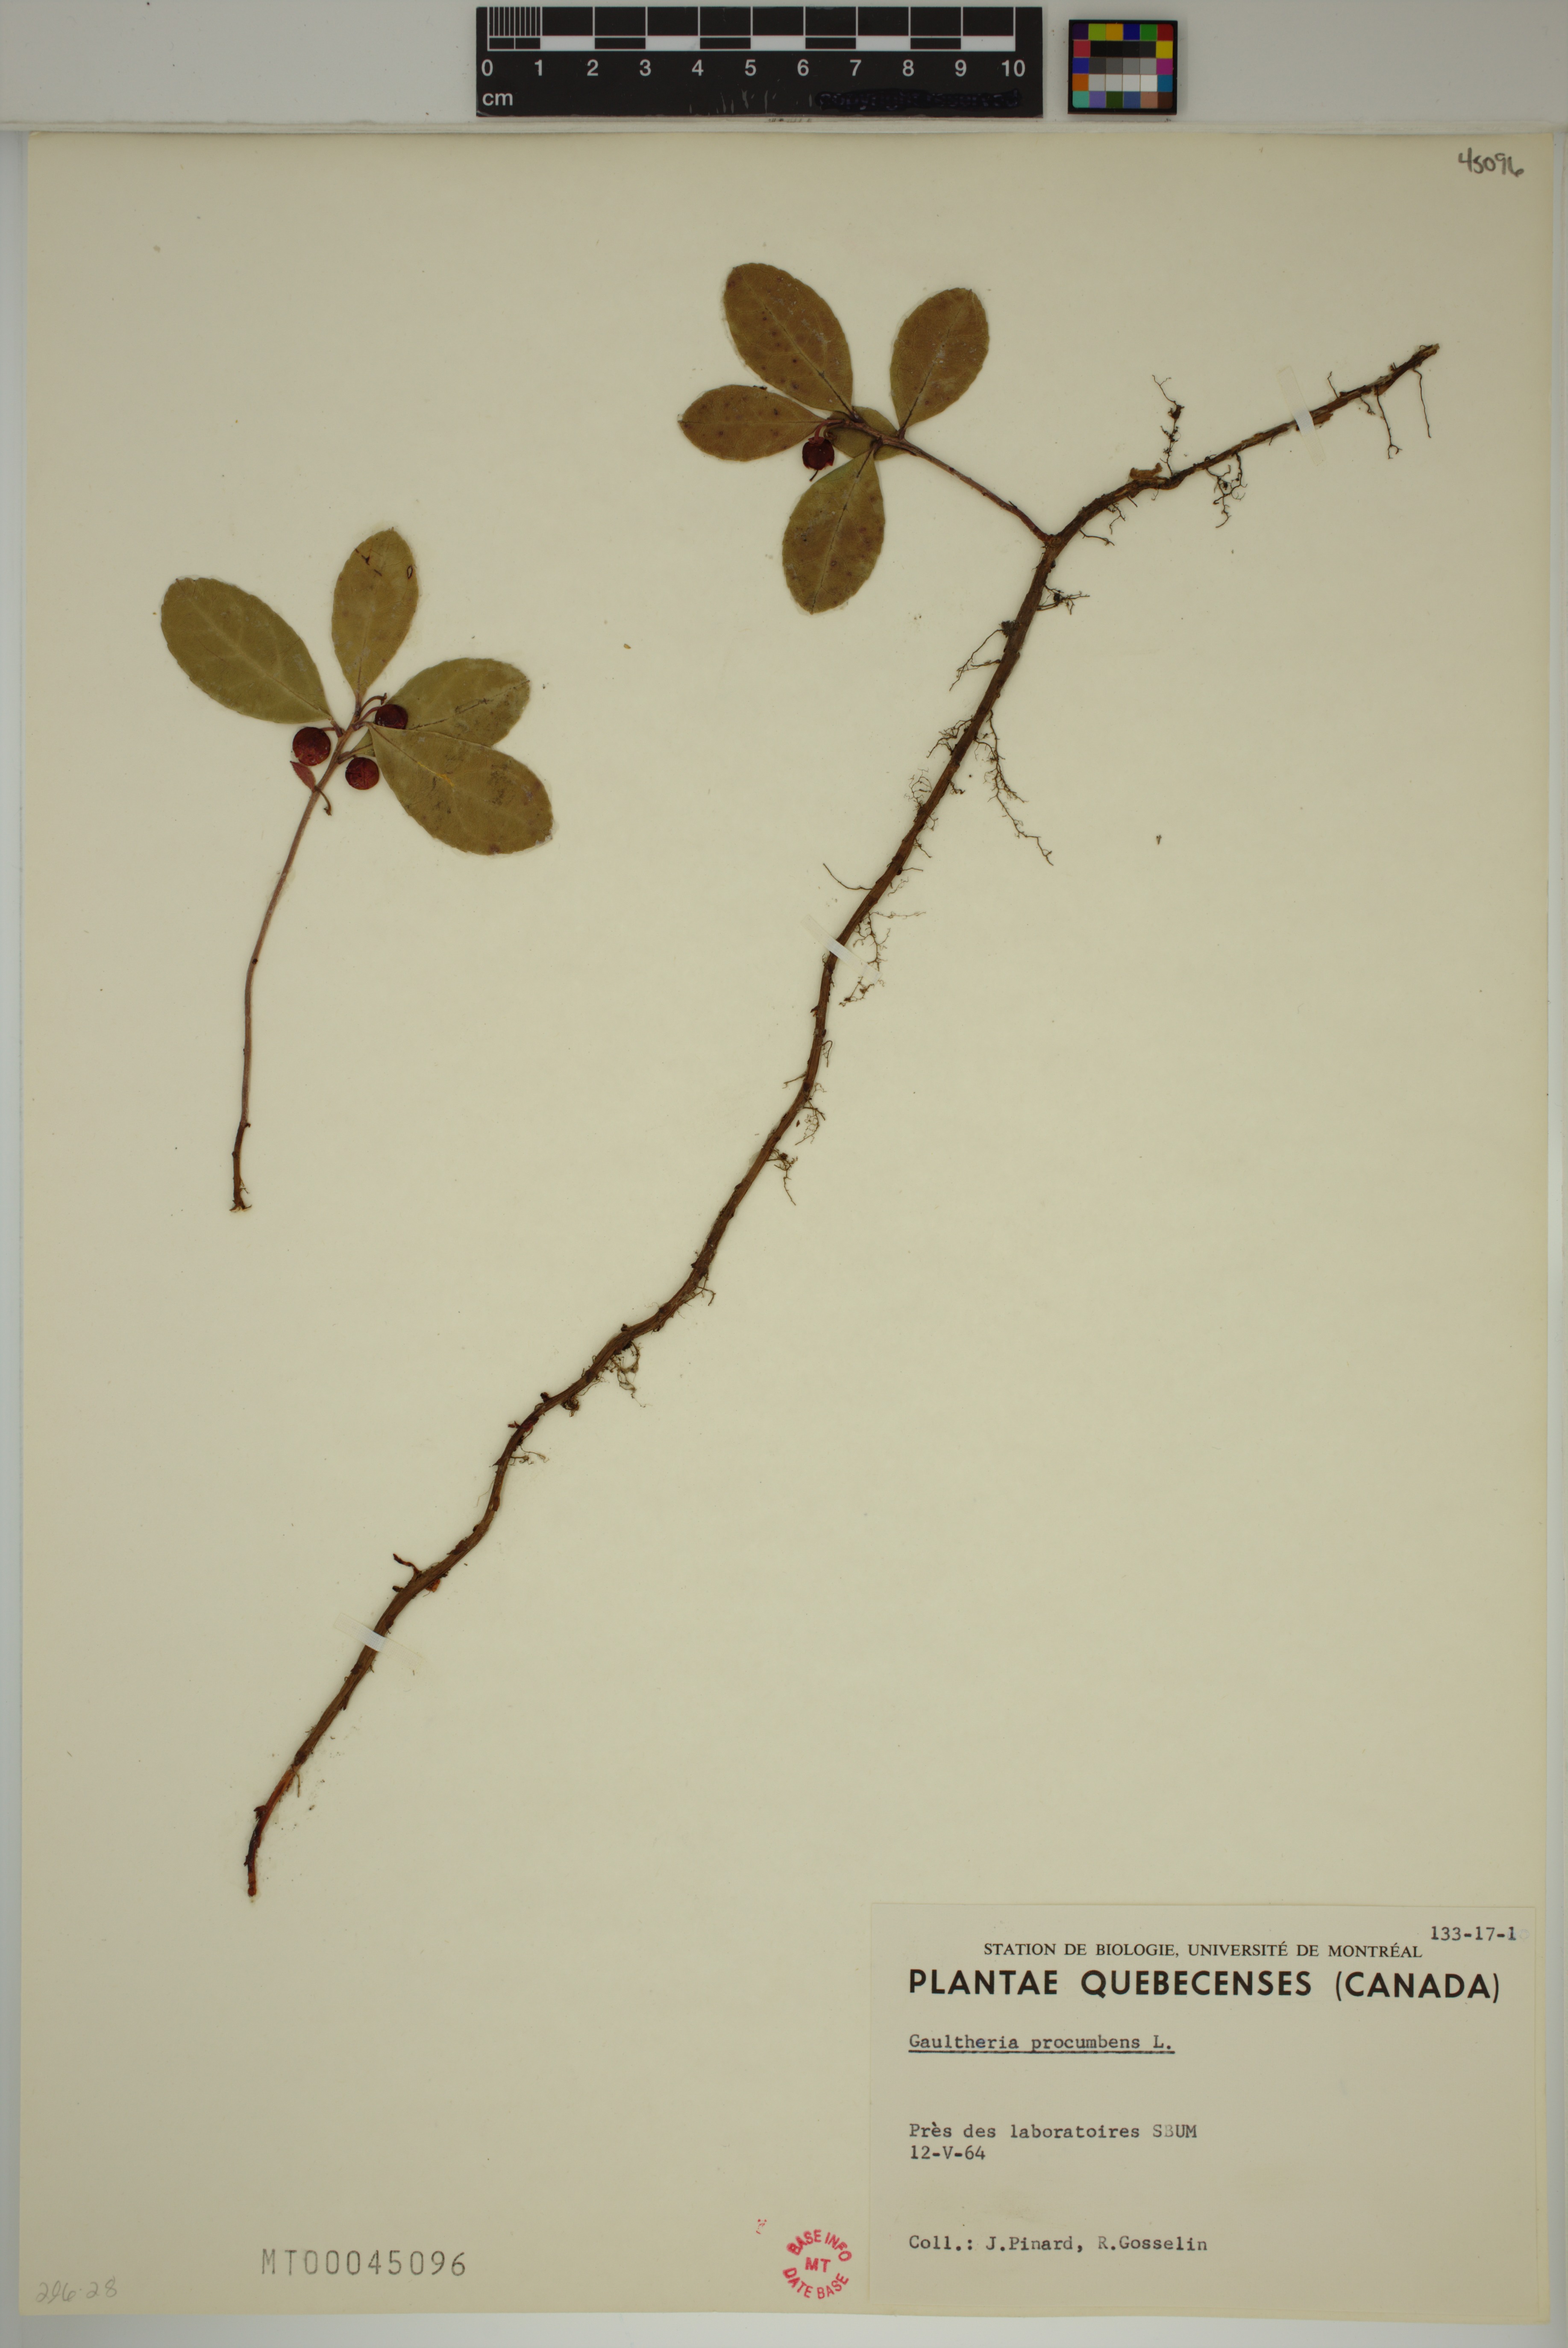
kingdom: Plantae
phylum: Tracheophyta
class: Magnoliopsida
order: Ericales
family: Ericaceae
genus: Gaultheria
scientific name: Gaultheria procumbens
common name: Checkerberry
